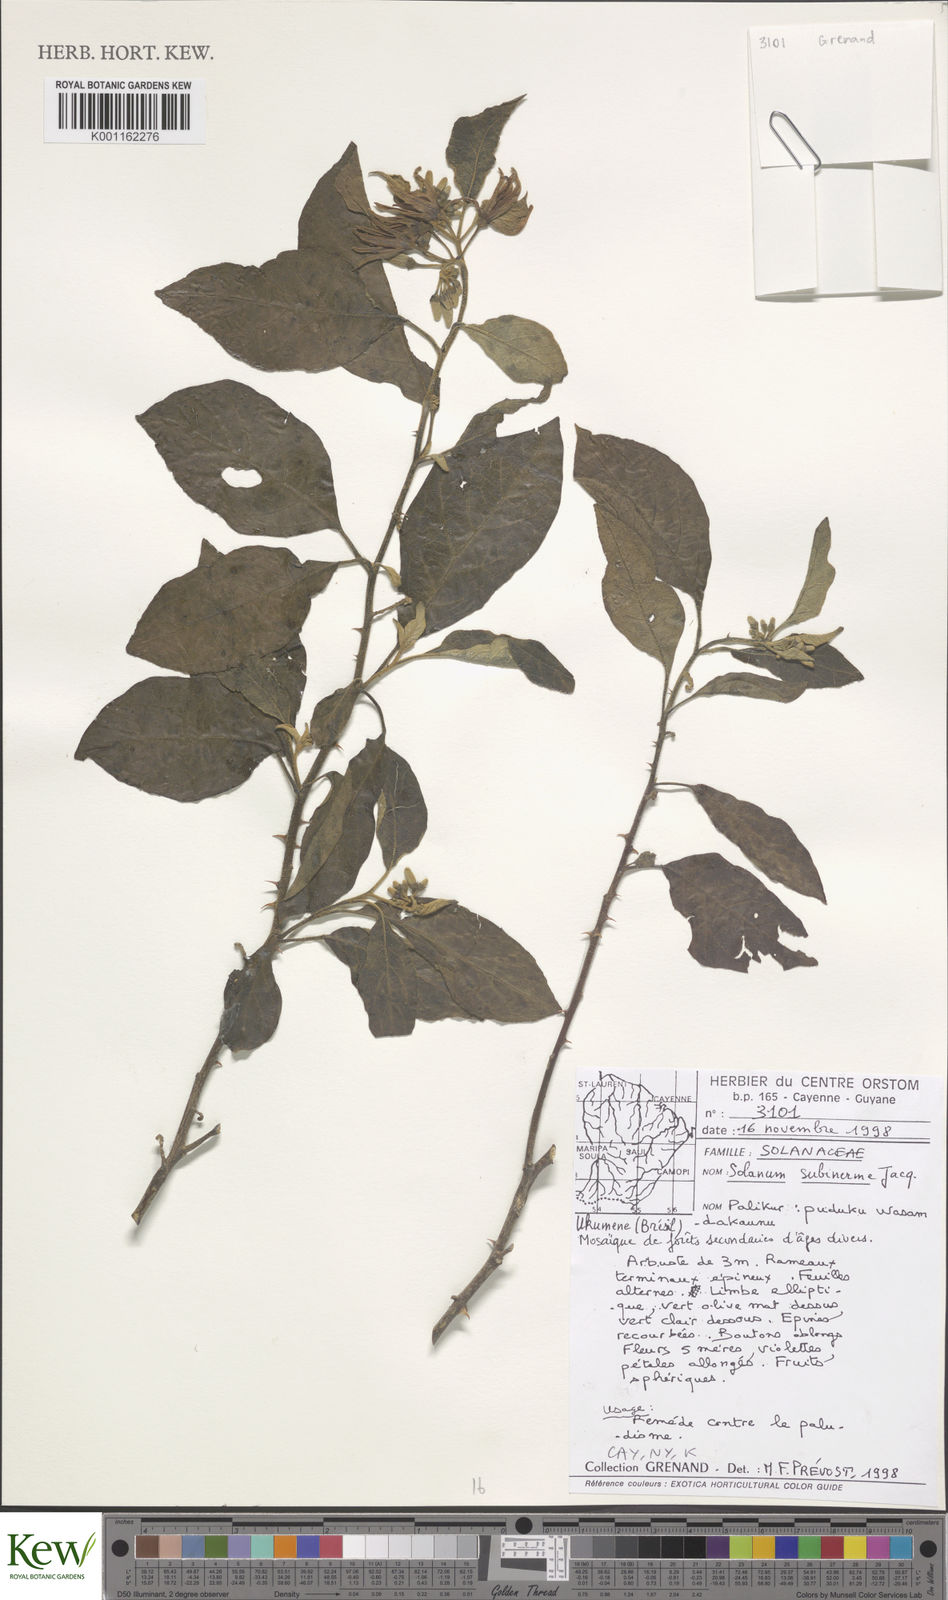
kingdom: Plantae
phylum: Tracheophyta
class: Magnoliopsida
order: Solanales
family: Solanaceae
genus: Solanum
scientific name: Solanum subinerme
